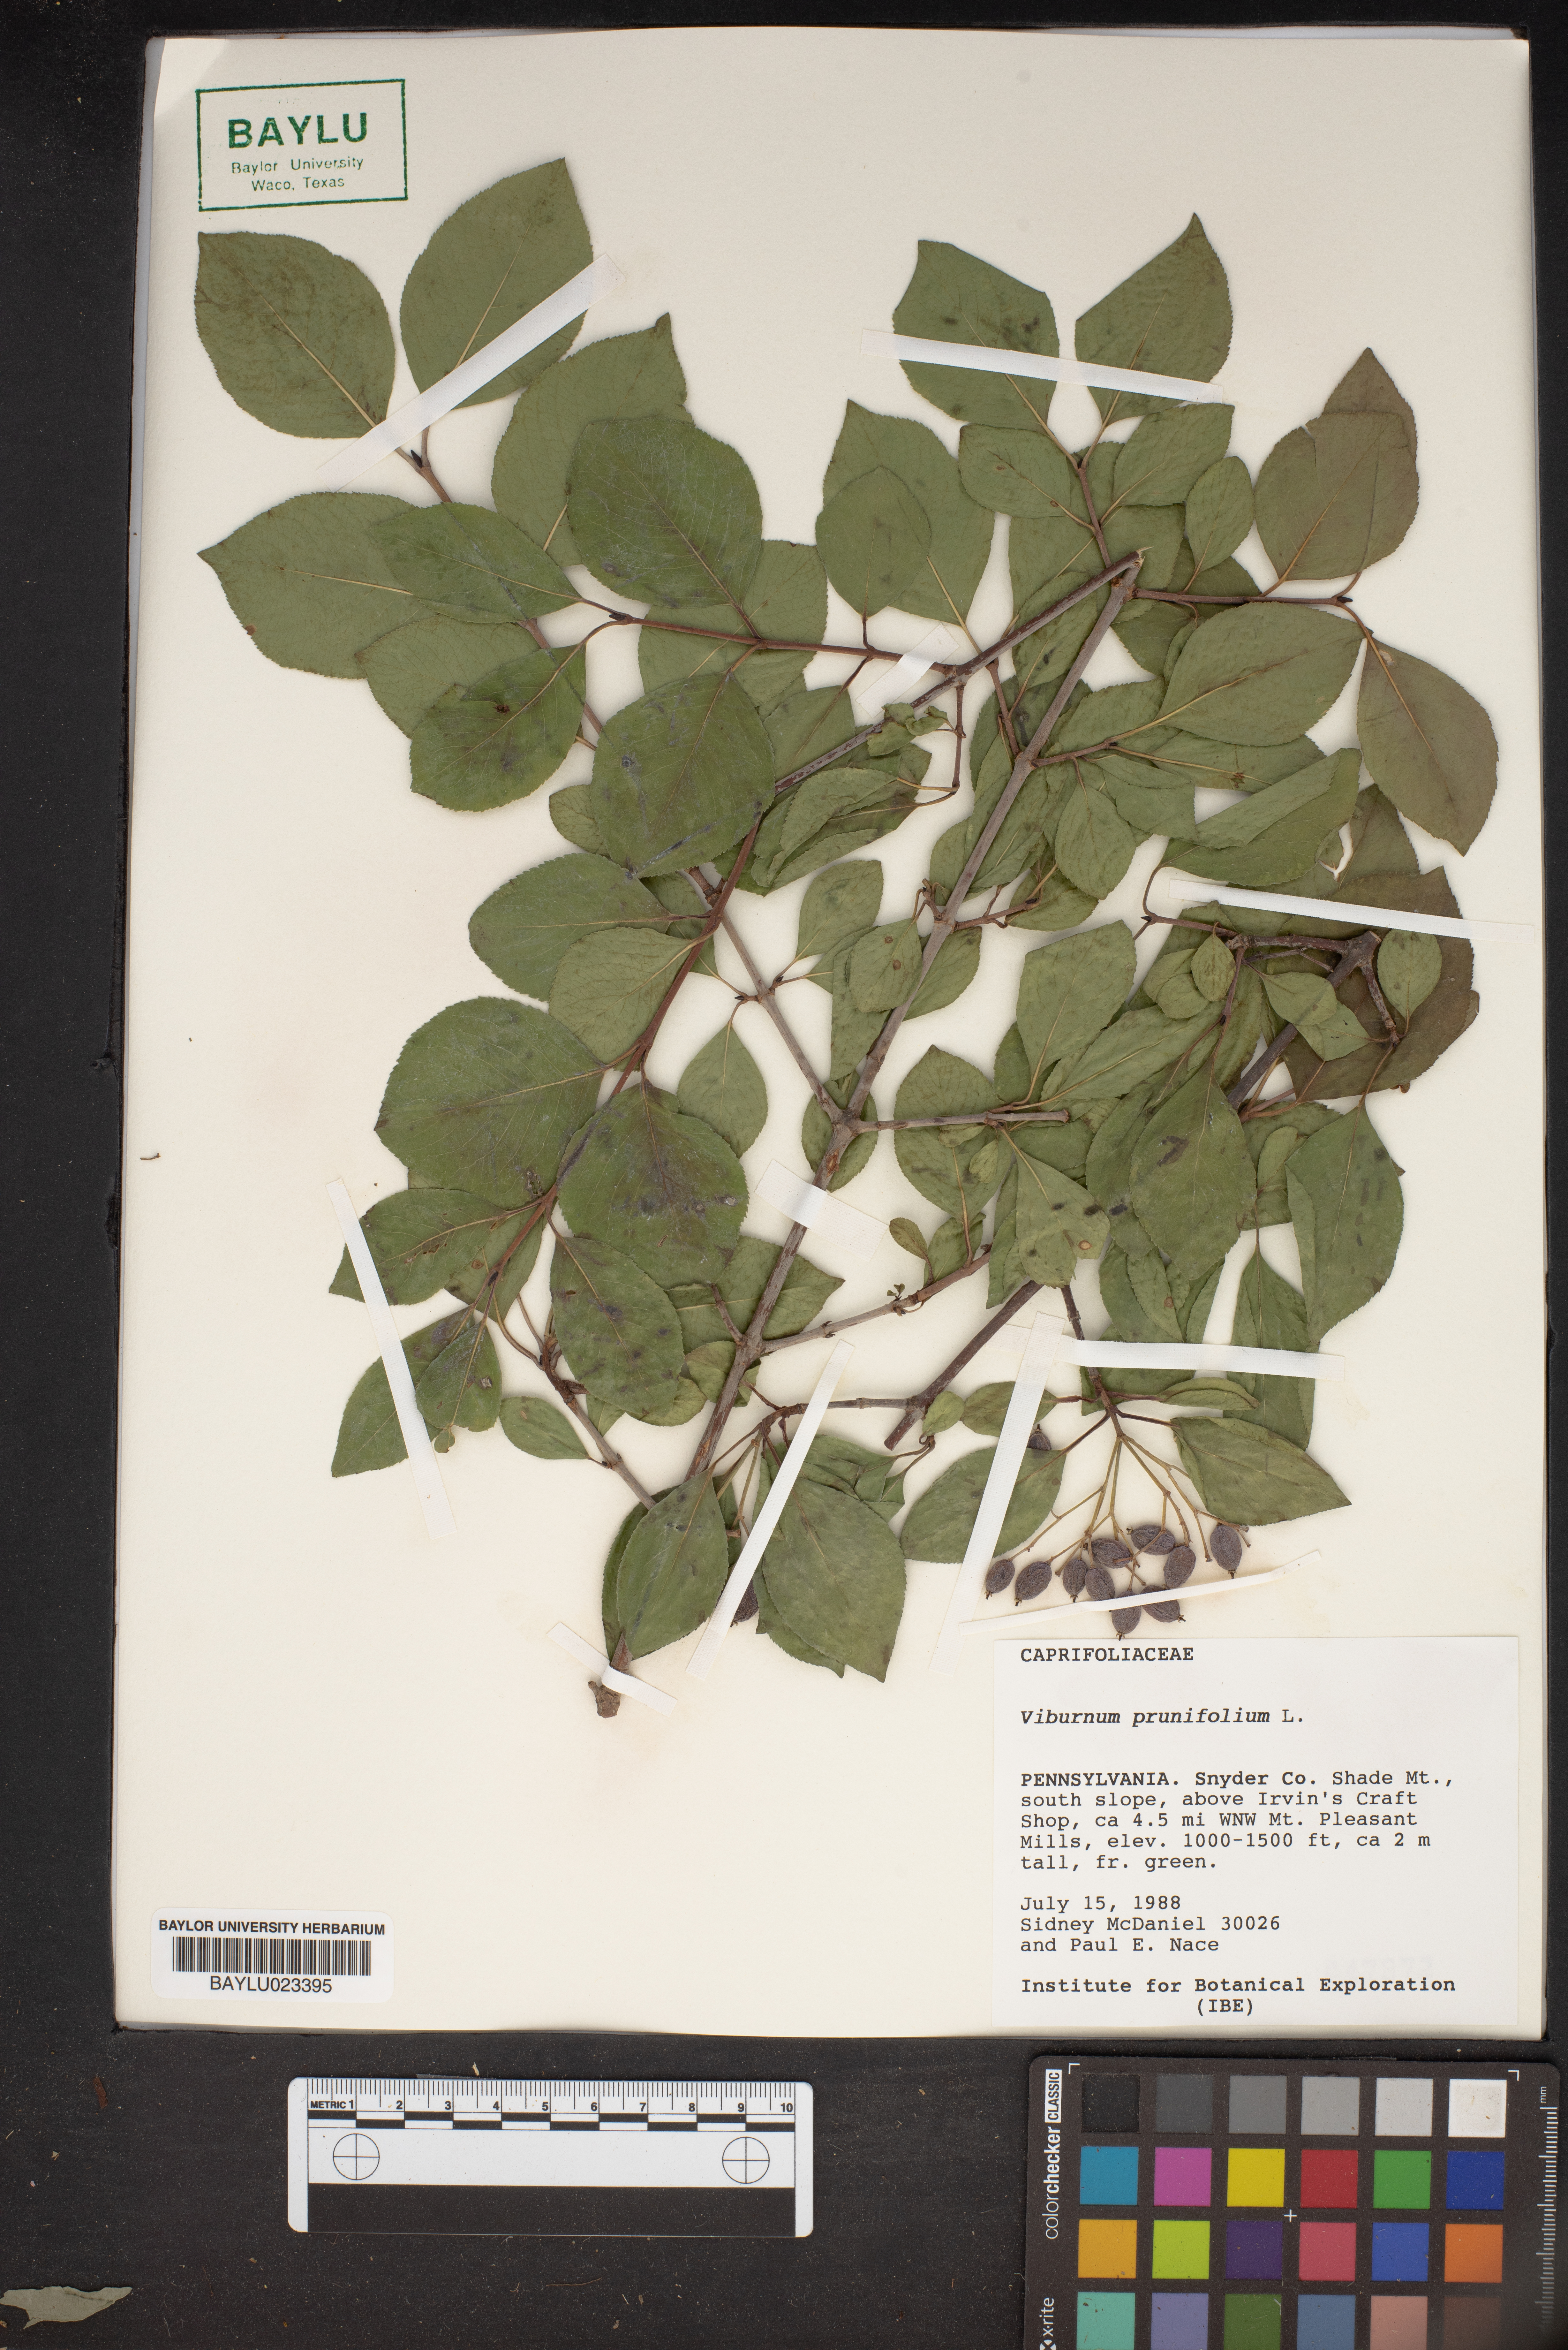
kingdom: Plantae
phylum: Tracheophyta
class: Magnoliopsida
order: Dipsacales
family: Viburnaceae
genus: Viburnum
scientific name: Viburnum prunifolium
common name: Black haw
